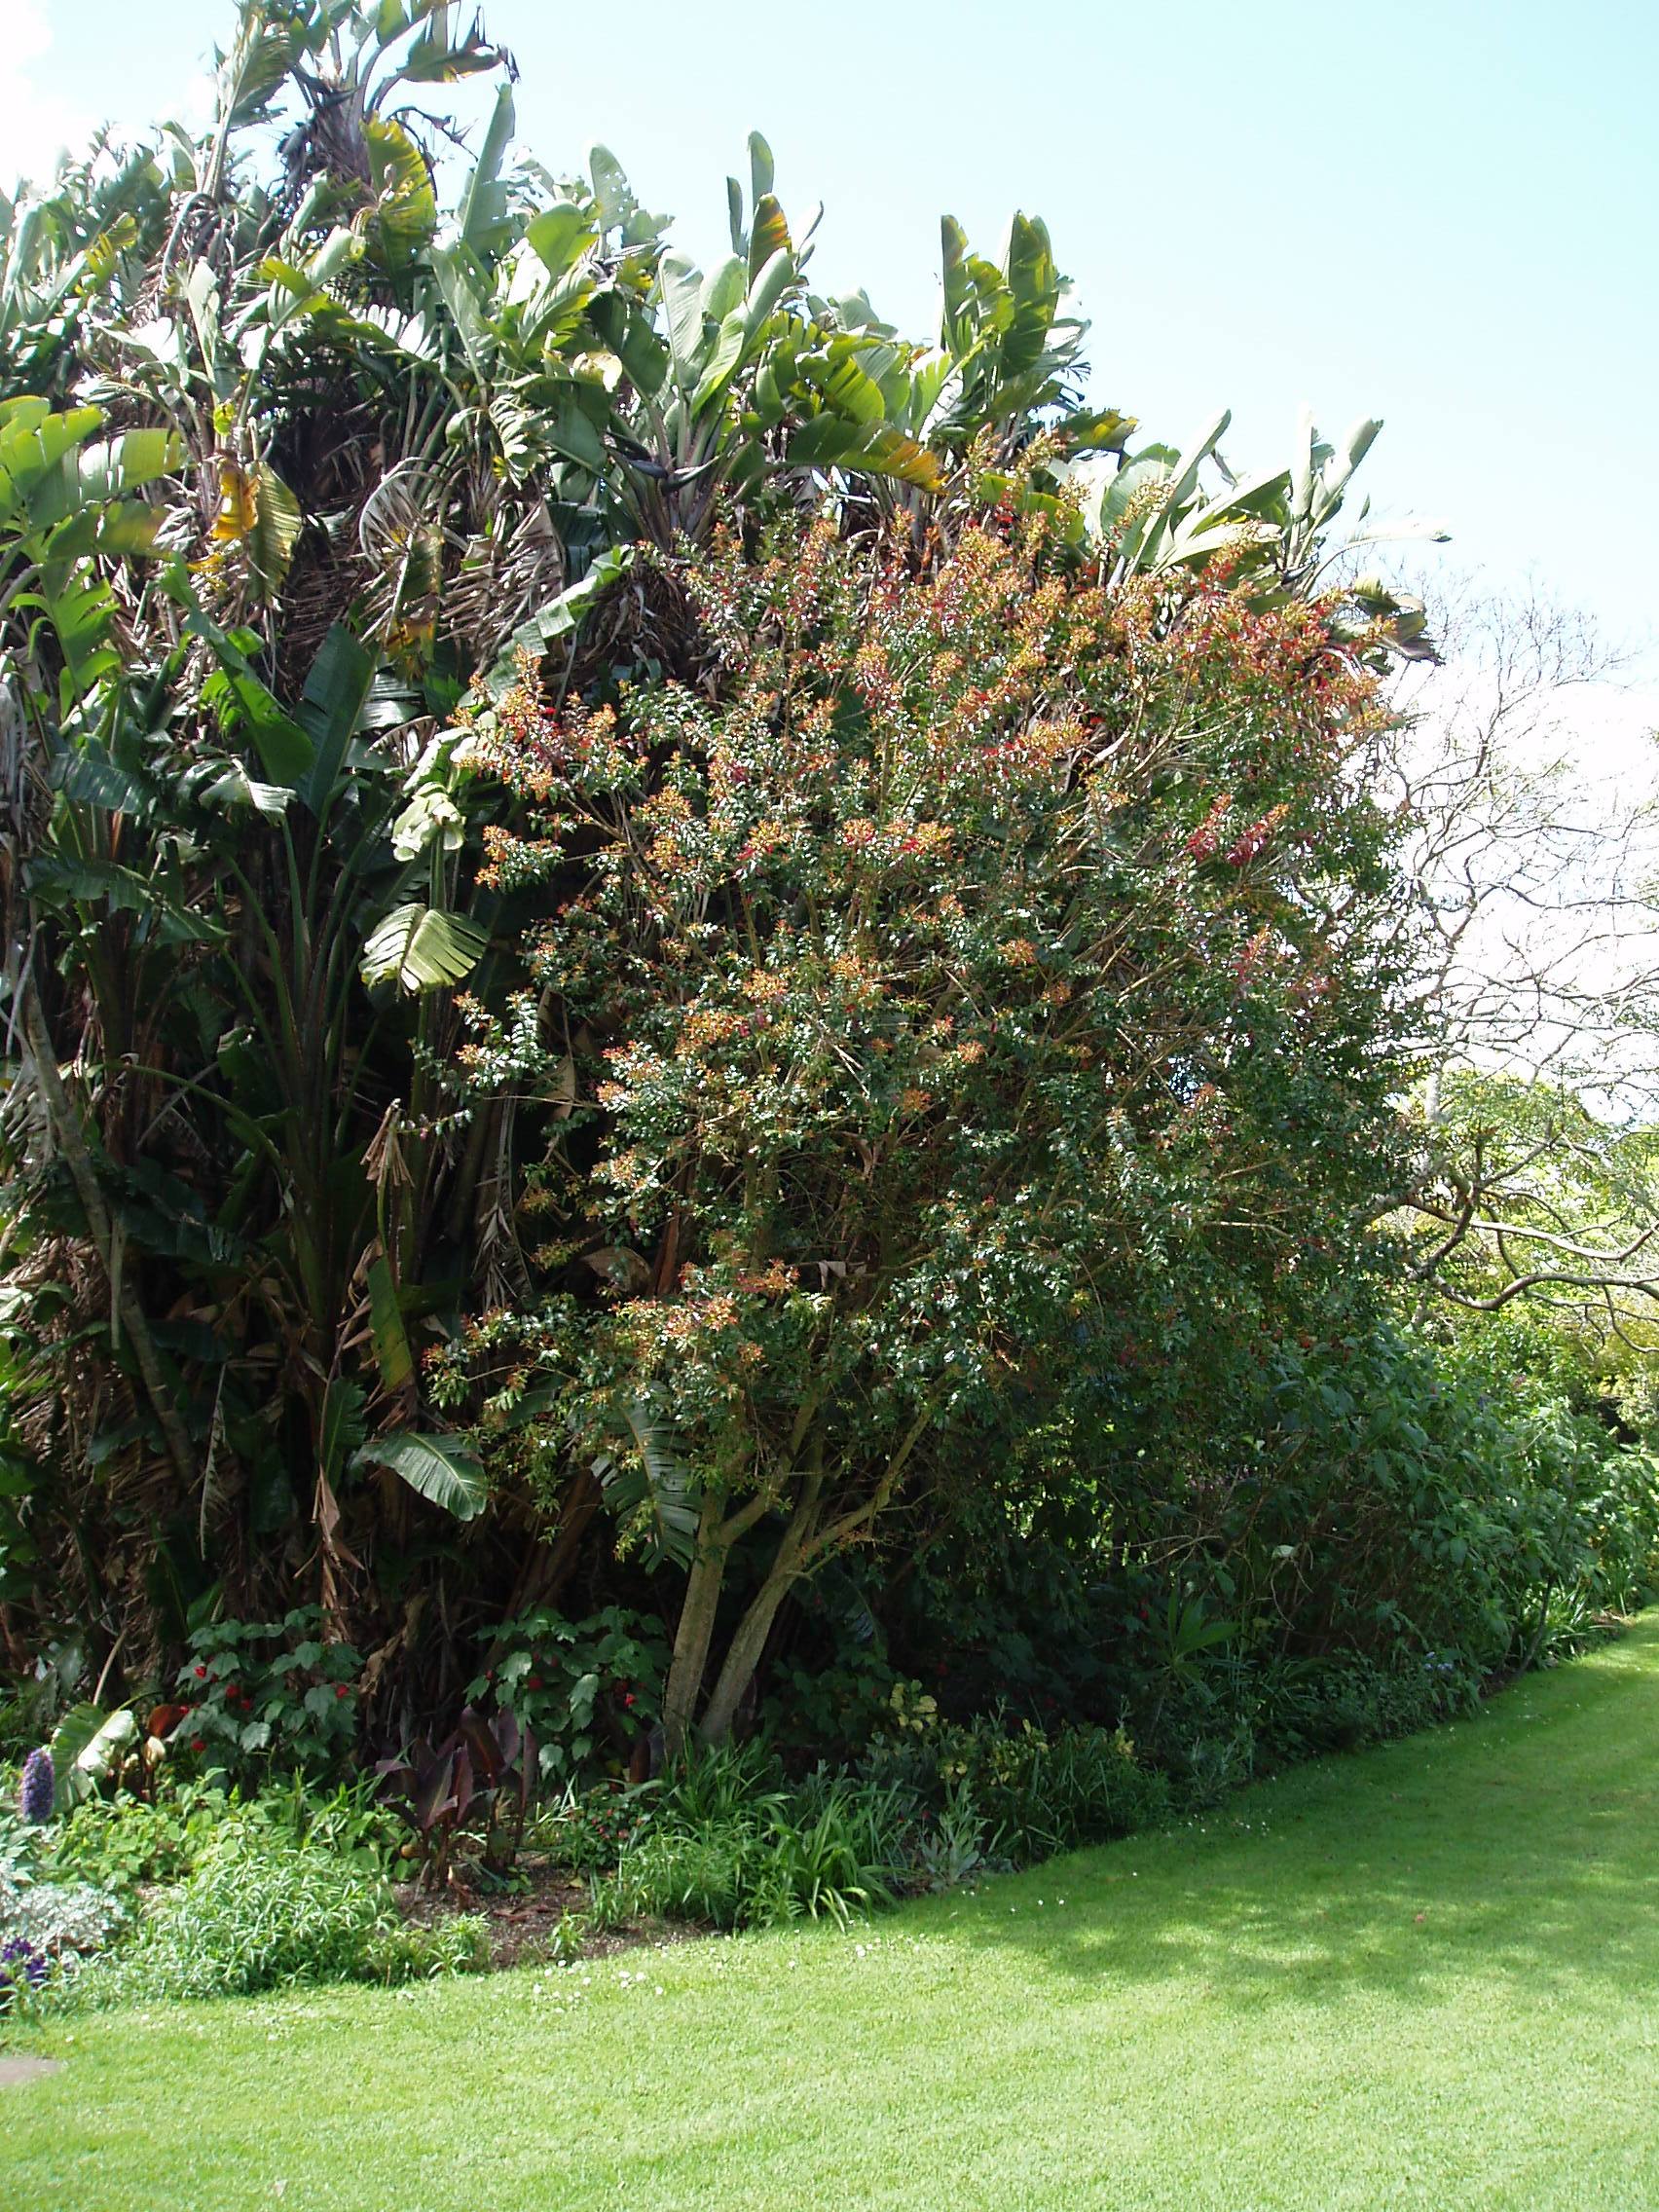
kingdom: Plantae
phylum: Tracheophyta
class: Magnoliopsida
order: Myrtales
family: Lythraceae
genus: Galpinia
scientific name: Galpinia transvaalica
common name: Wild pride of india
